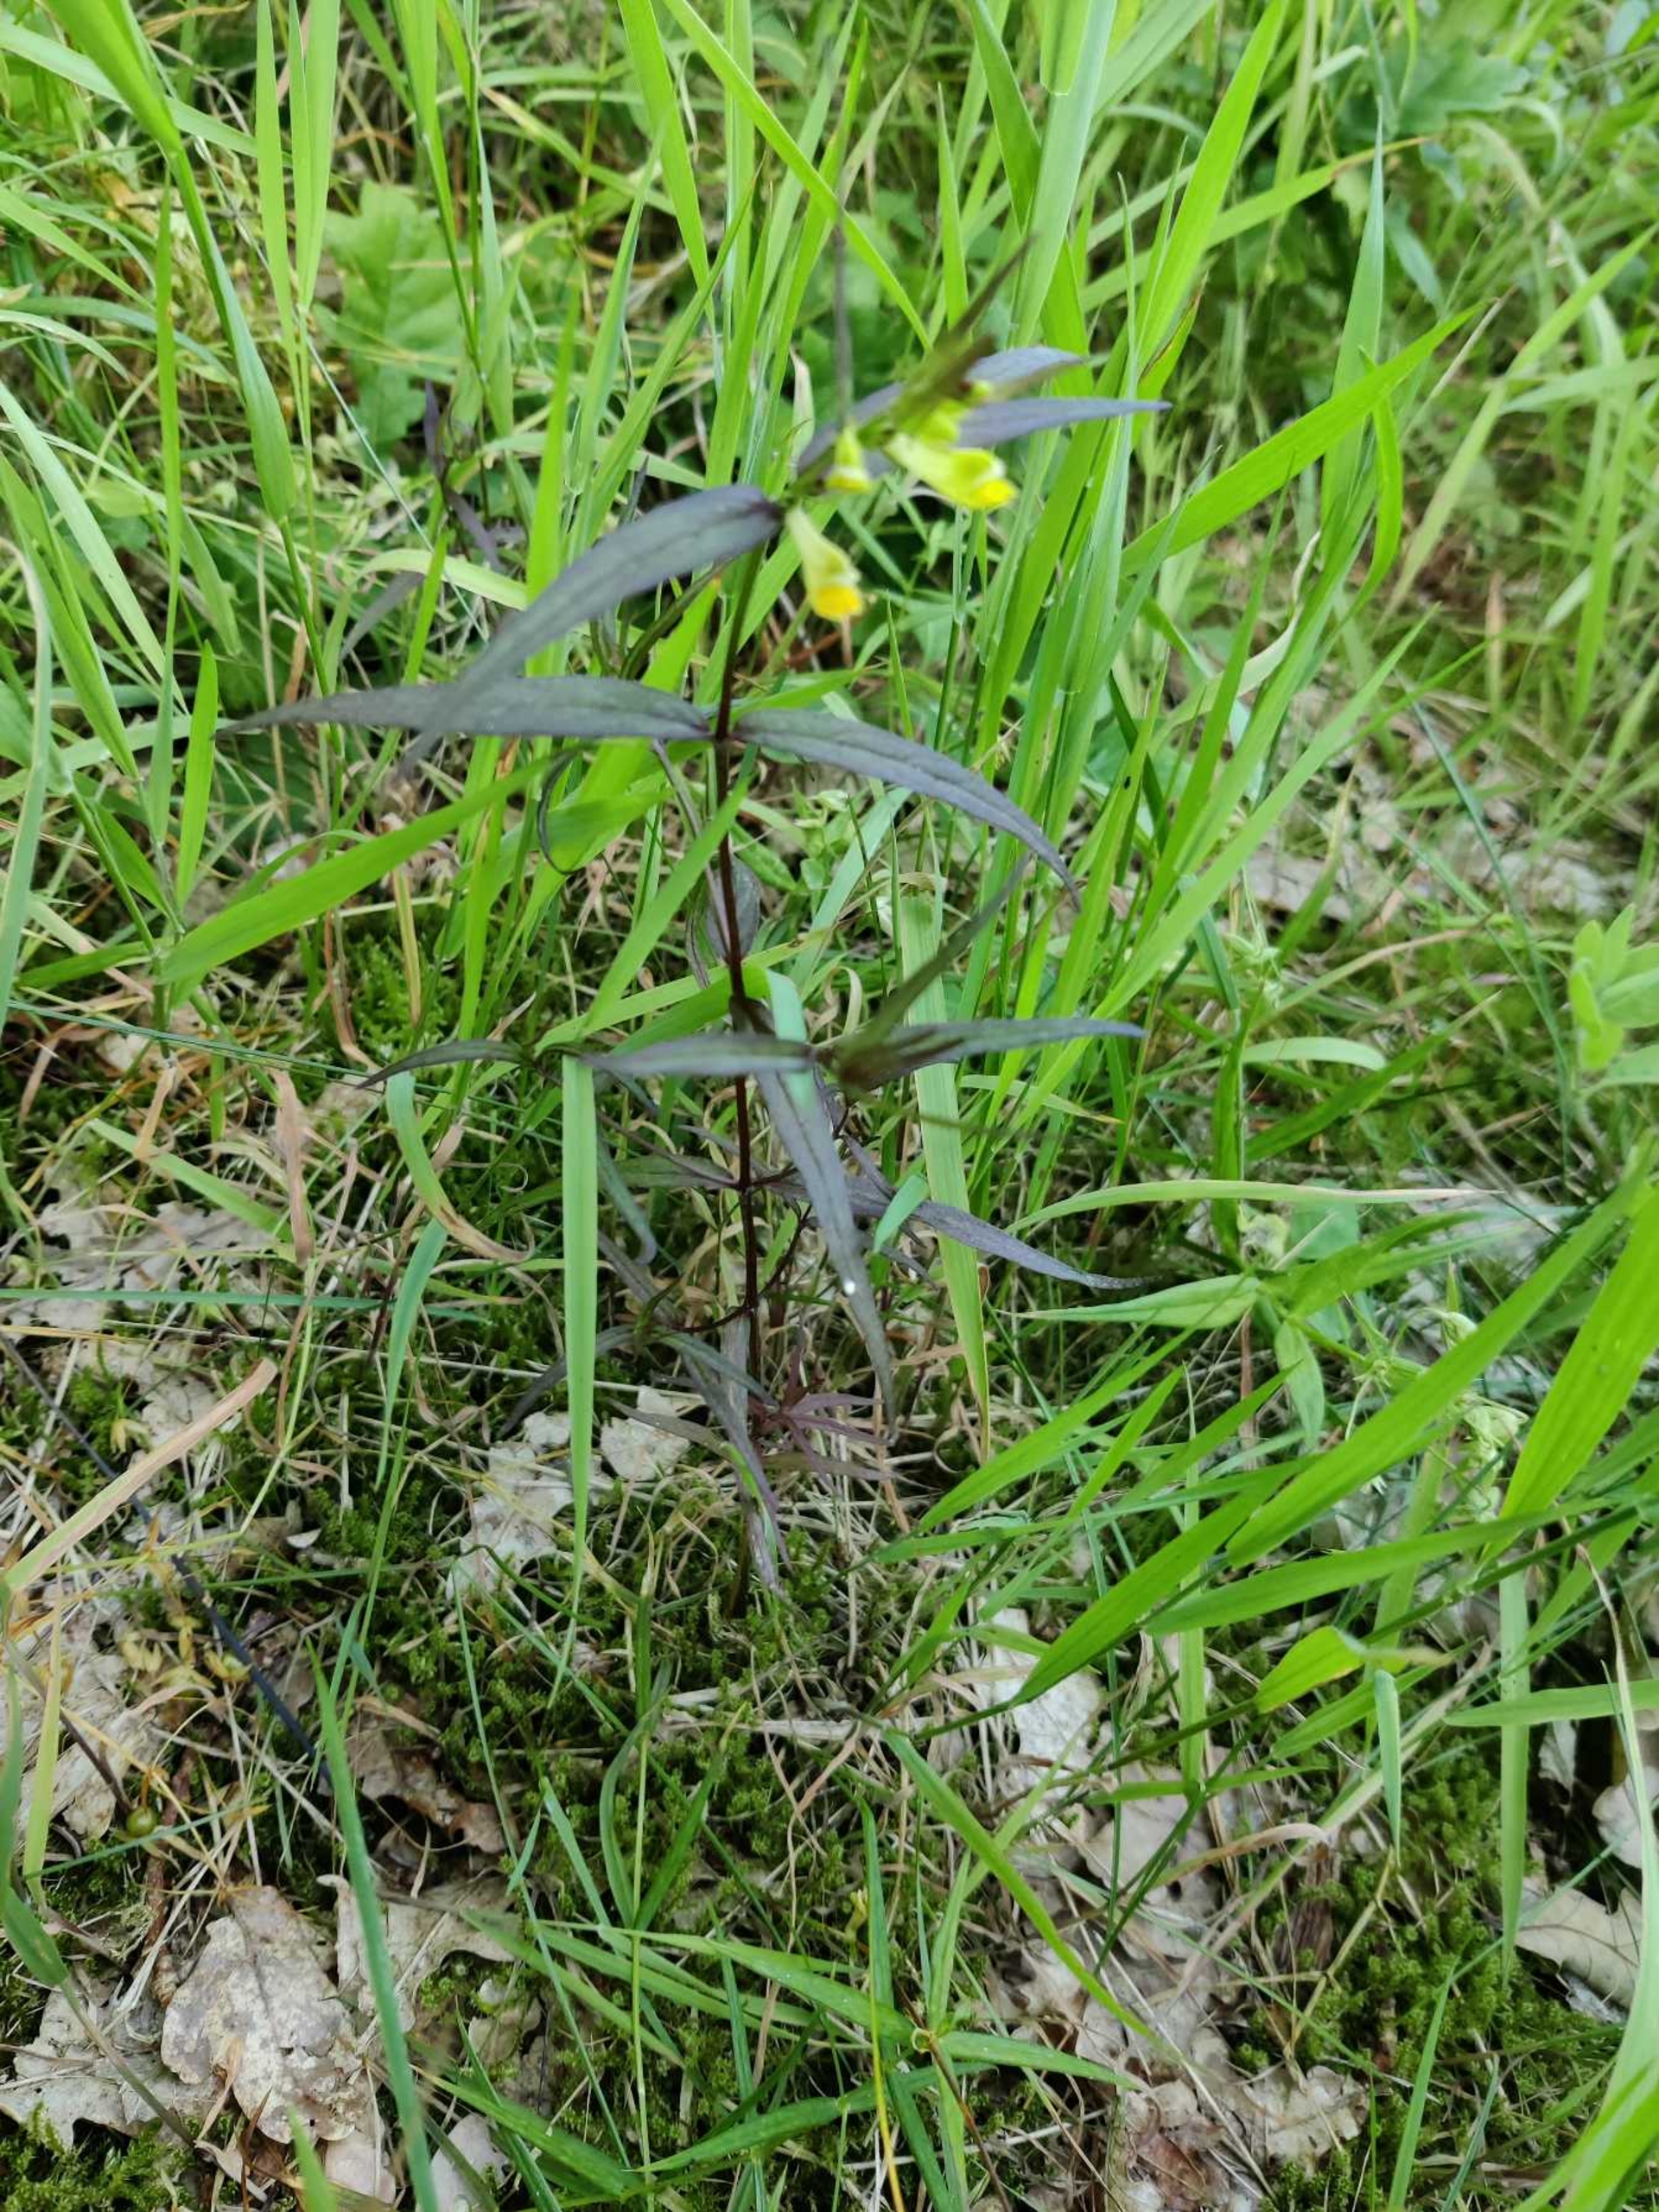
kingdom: Plantae
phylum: Tracheophyta
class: Magnoliopsida
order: Lamiales
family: Orobanchaceae
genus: Melampyrum
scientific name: Melampyrum pratense
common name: Almindelig kohvede
